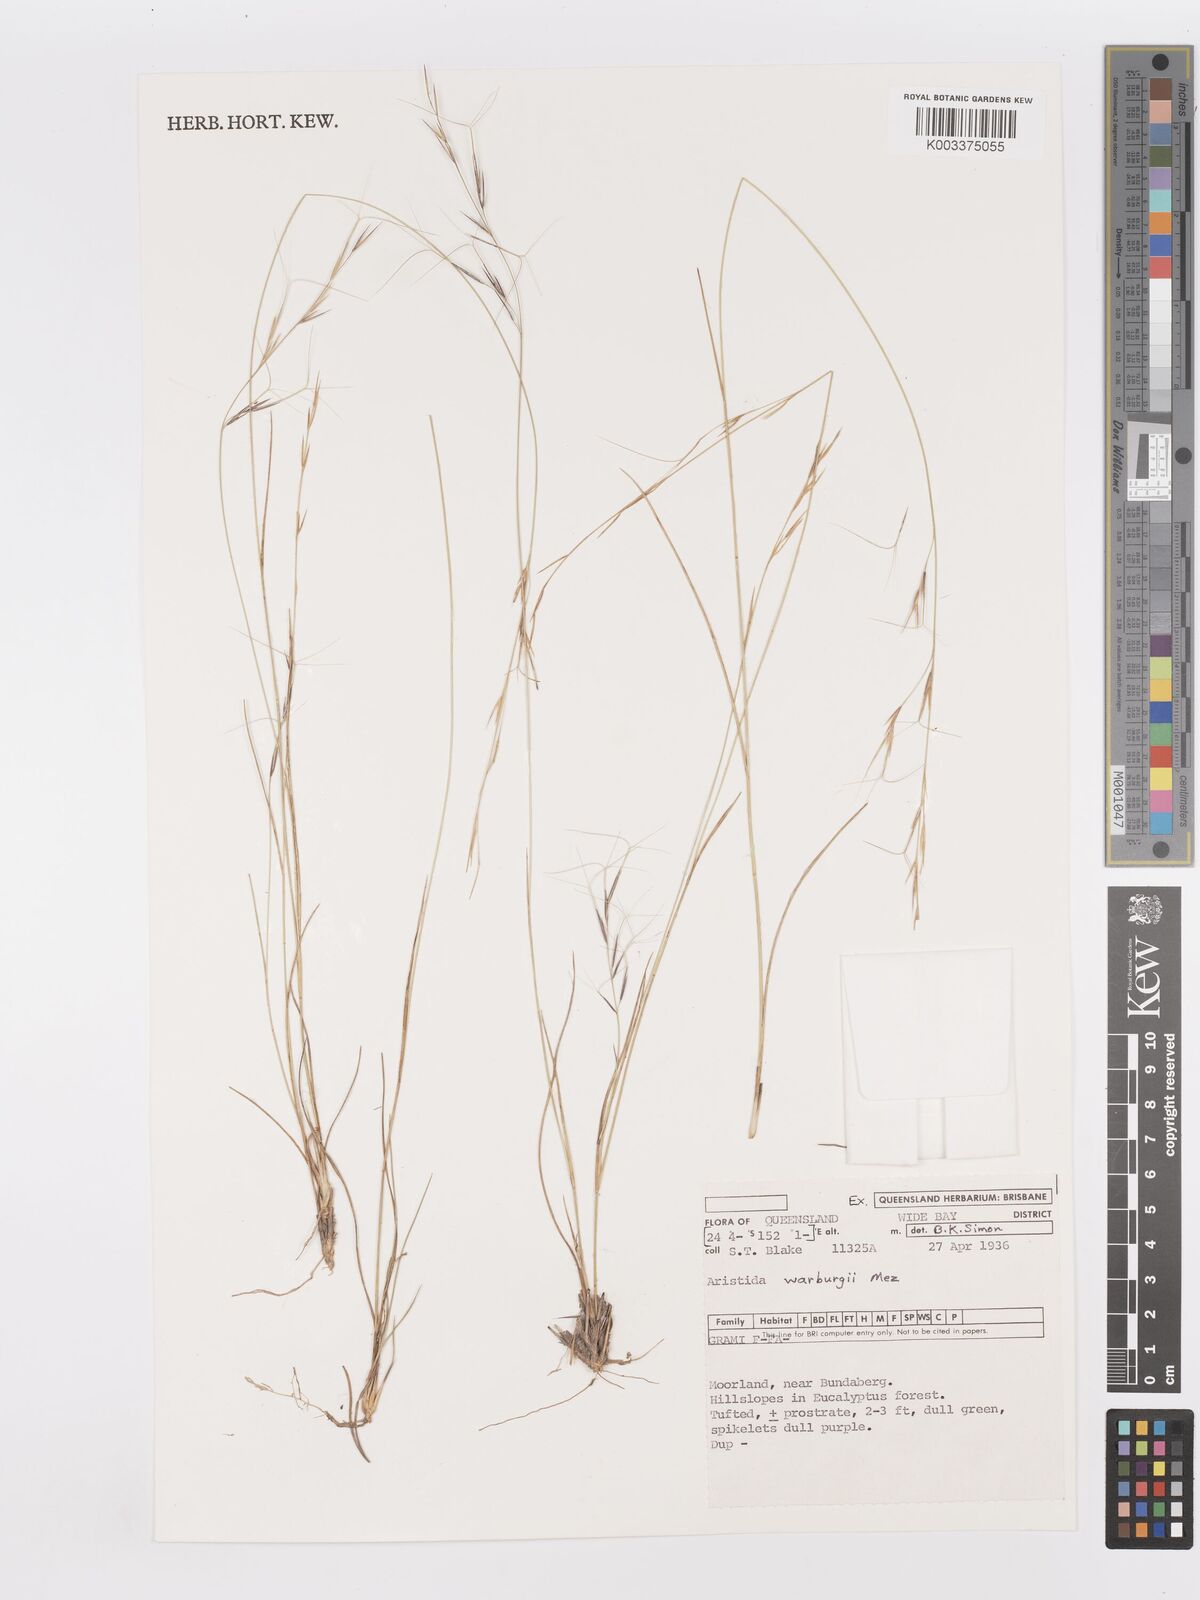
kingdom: Plantae
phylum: Tracheophyta
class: Liliopsida
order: Poales
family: Poaceae
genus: Aristida
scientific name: Aristida warburgii
